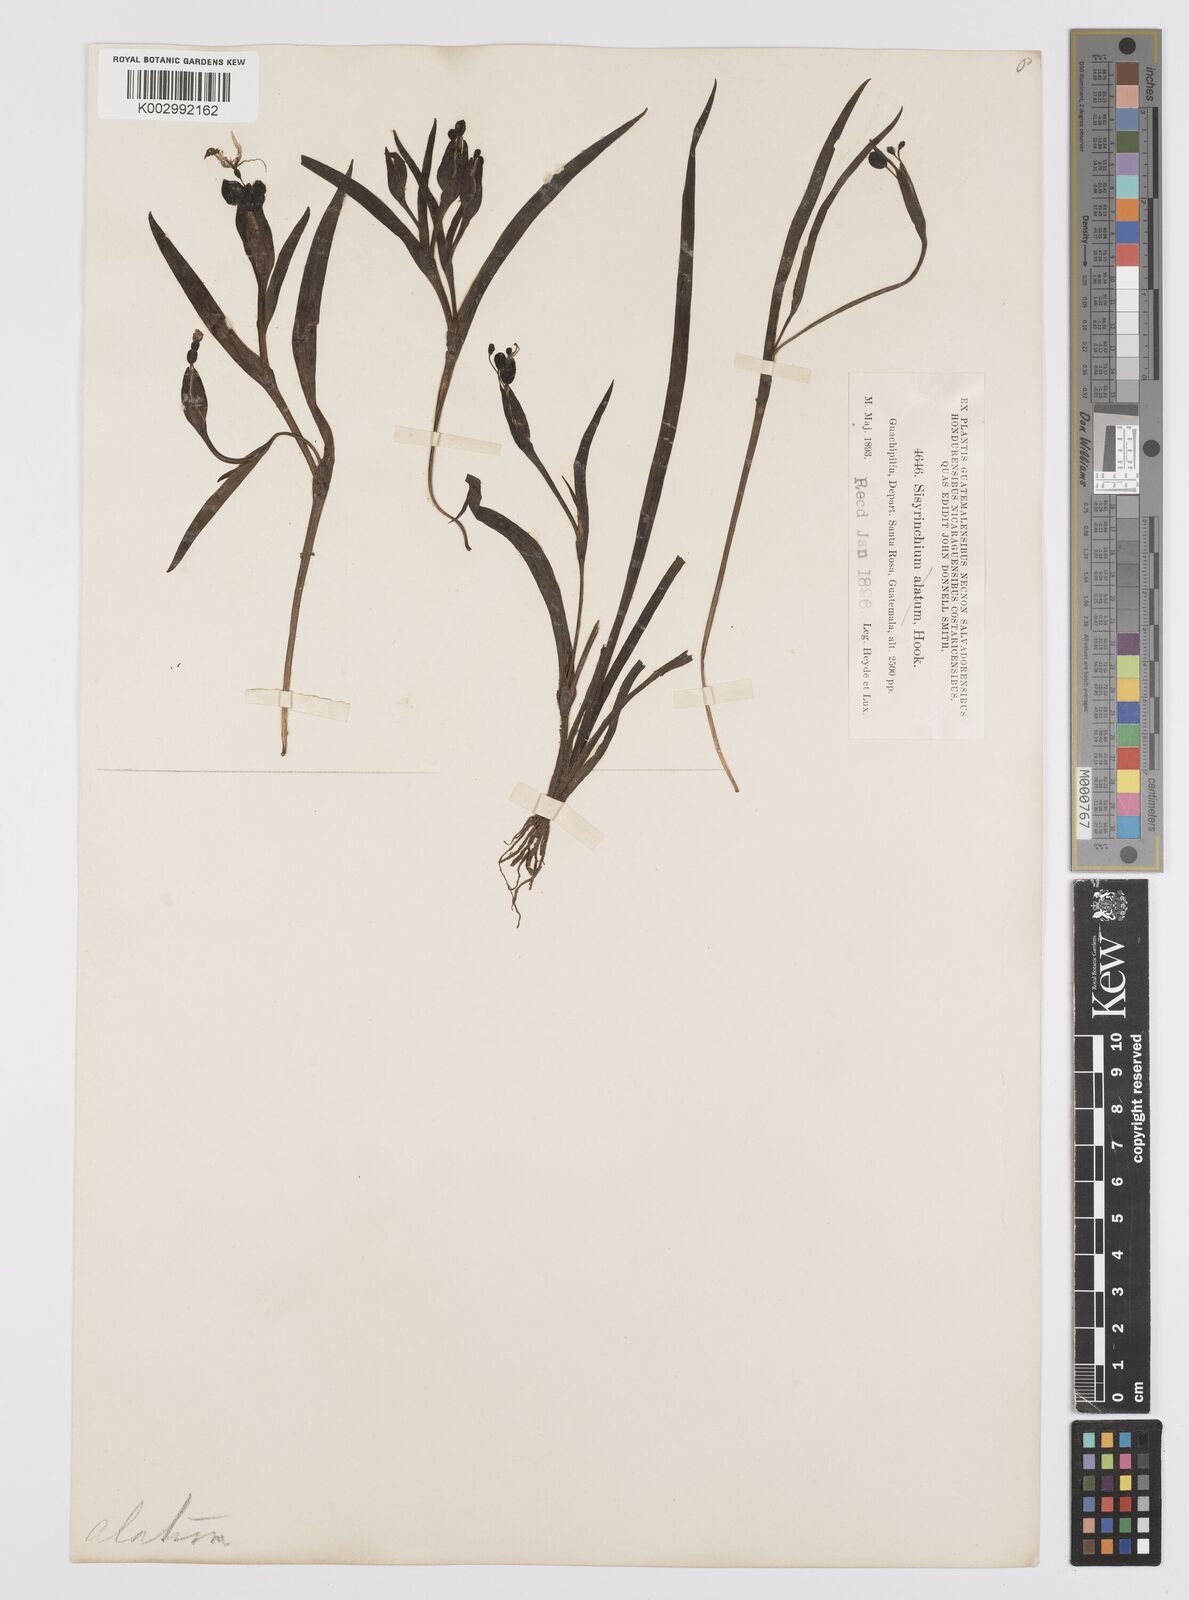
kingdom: Plantae
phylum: Tracheophyta
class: Liliopsida
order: Asparagales
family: Iridaceae
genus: Sisyrinchium
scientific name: Sisyrinchium coulterianum
